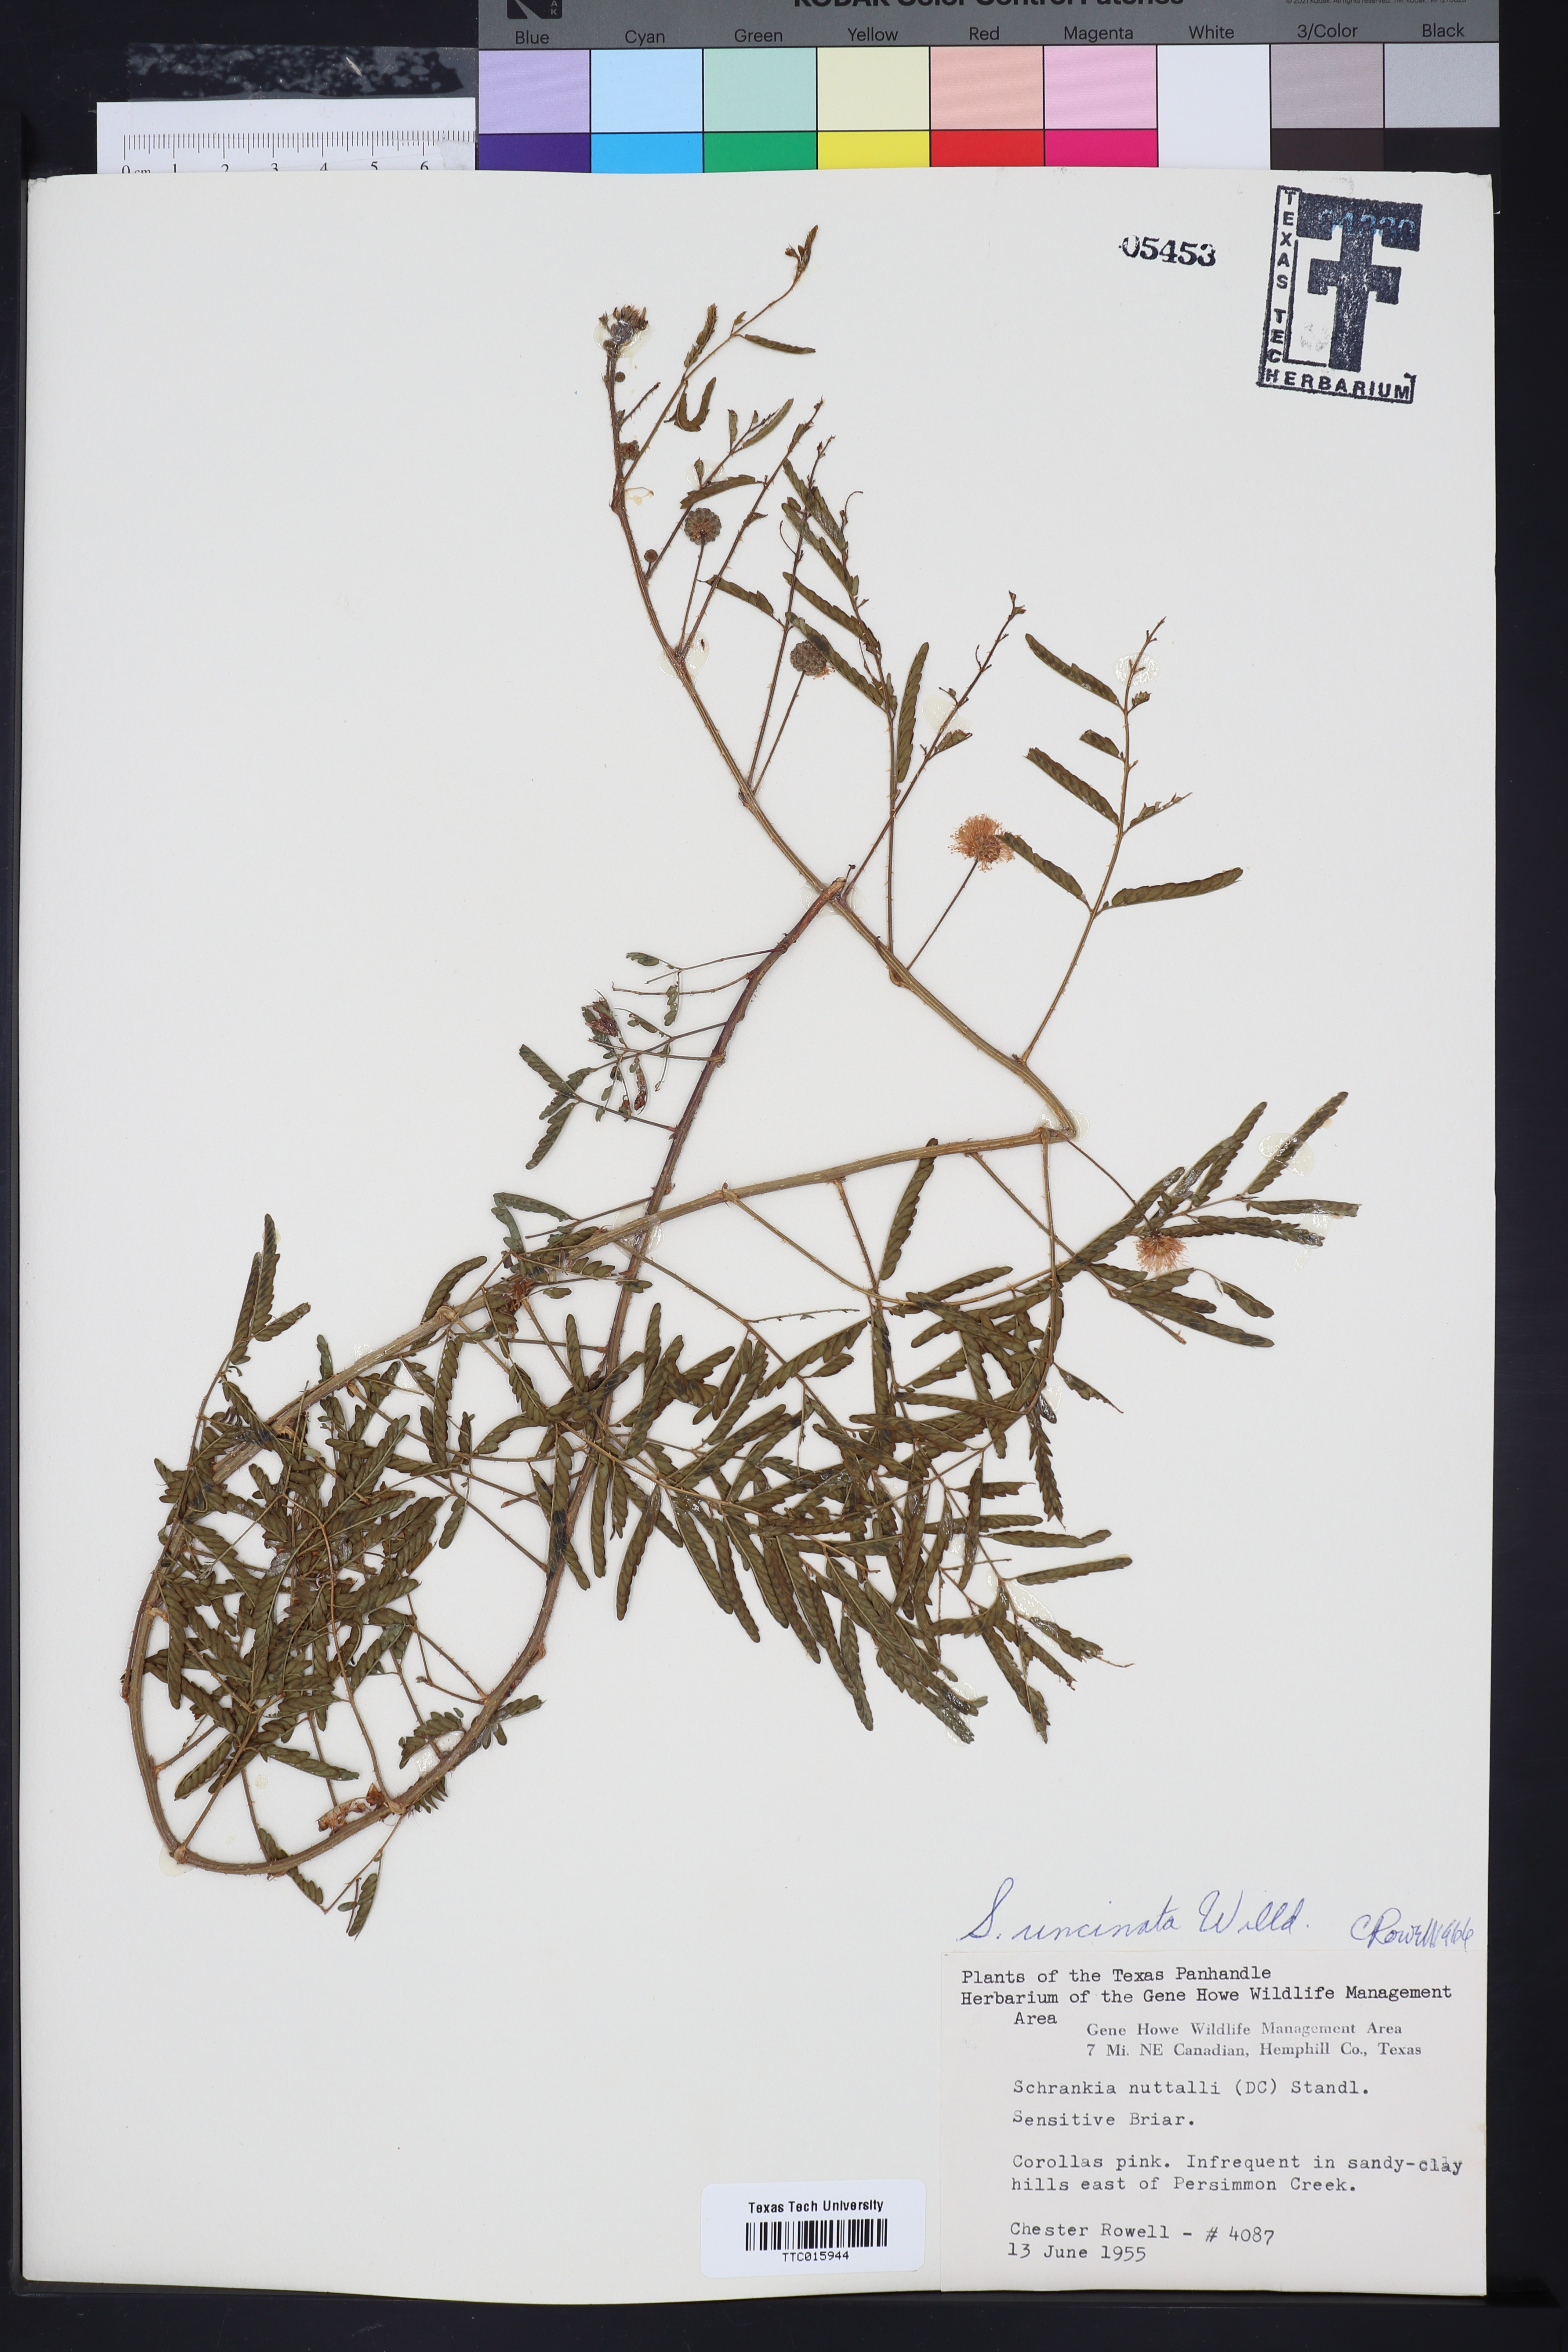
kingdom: Plantae
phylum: Tracheophyta
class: Magnoliopsida
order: Fabales
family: Fabaceae
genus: Mimosa
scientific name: Mimosa quadrivalvis
